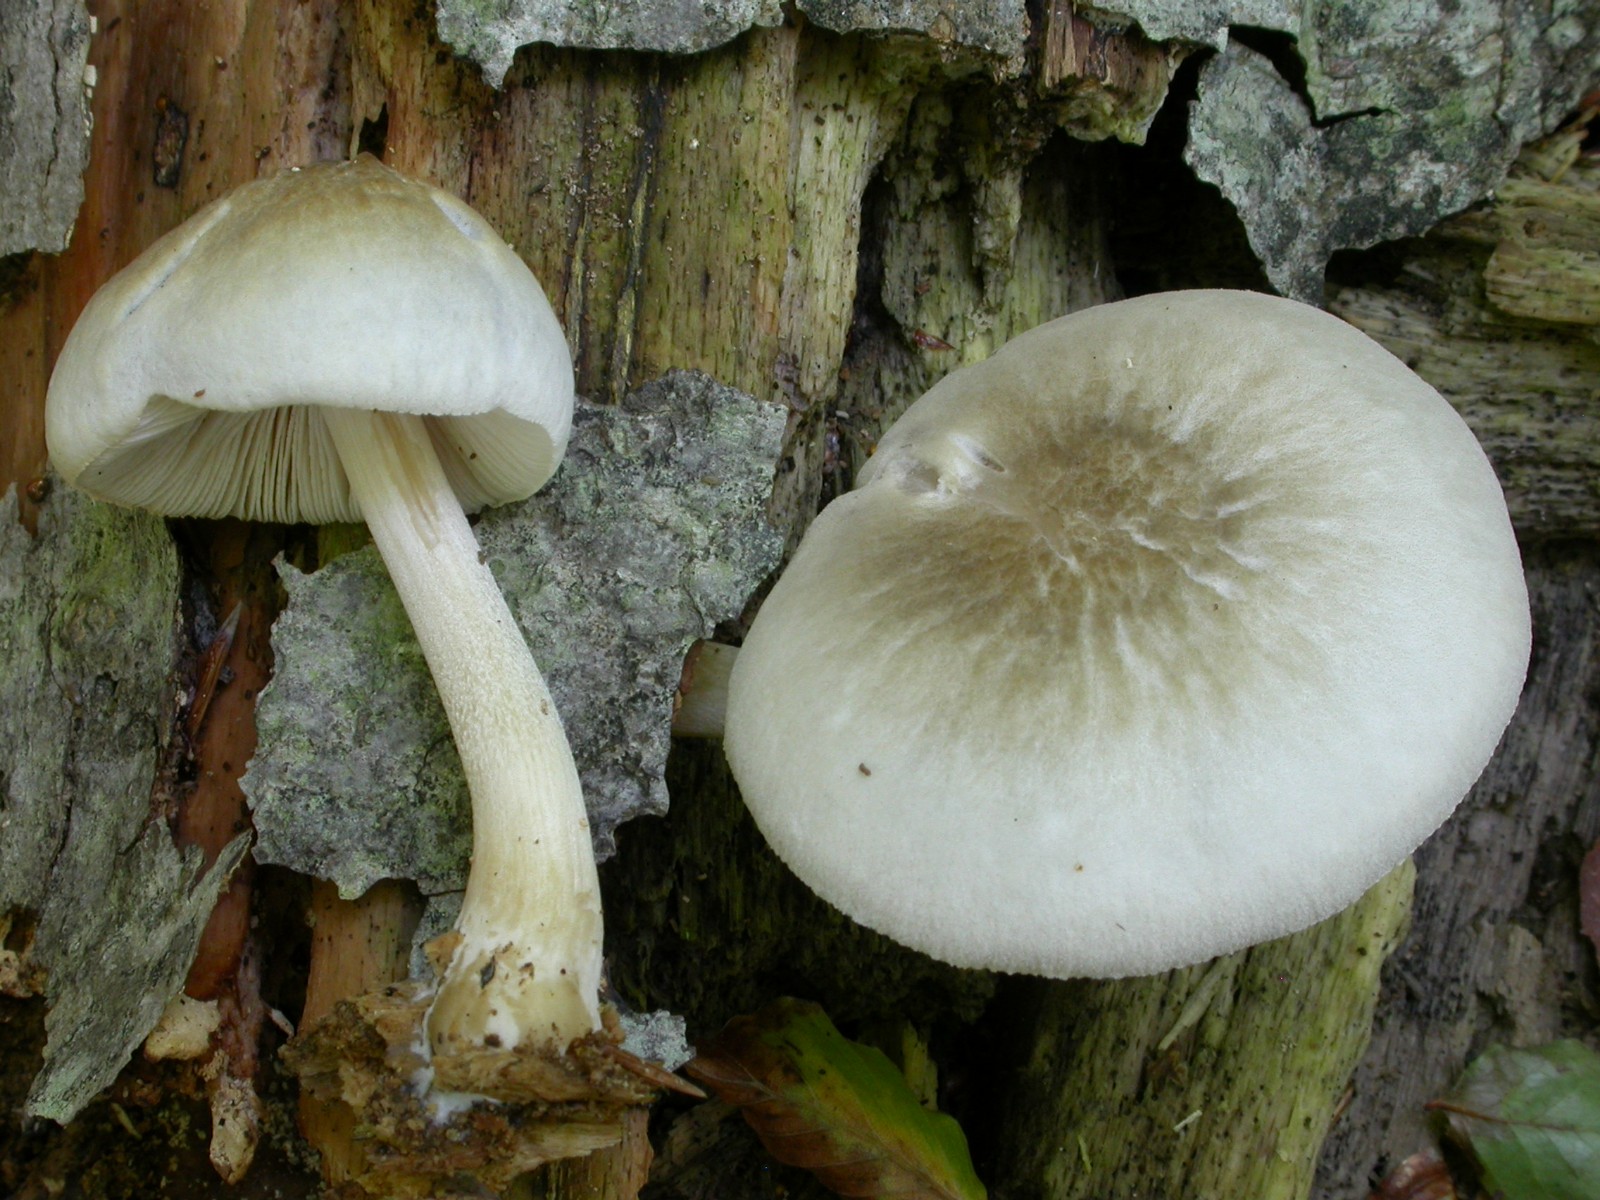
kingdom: Fungi
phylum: Basidiomycota
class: Agaricomycetes
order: Agaricales
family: Pluteaceae
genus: Pluteus
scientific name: Pluteus plautus
